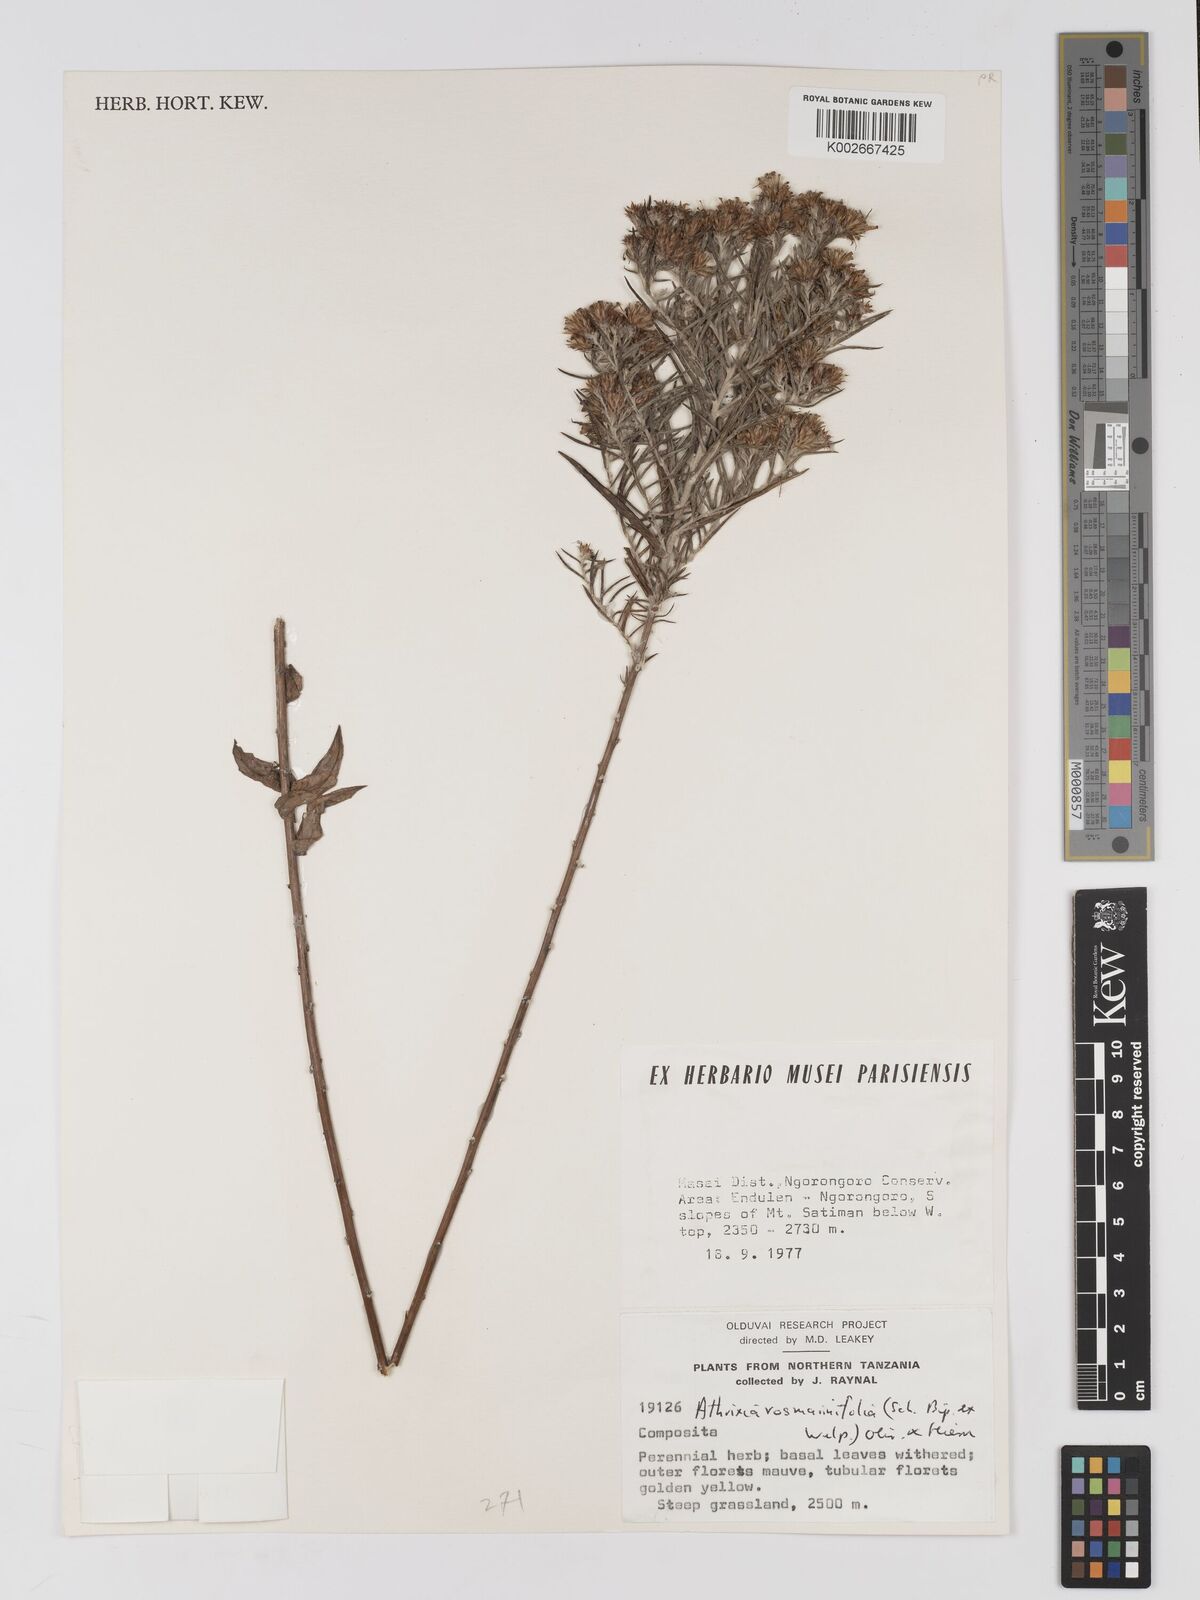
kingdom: Plantae
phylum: Tracheophyta
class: Magnoliopsida
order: Asterales
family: Asteraceae
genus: Athrixia
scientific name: Athrixia rosmarinifolia
